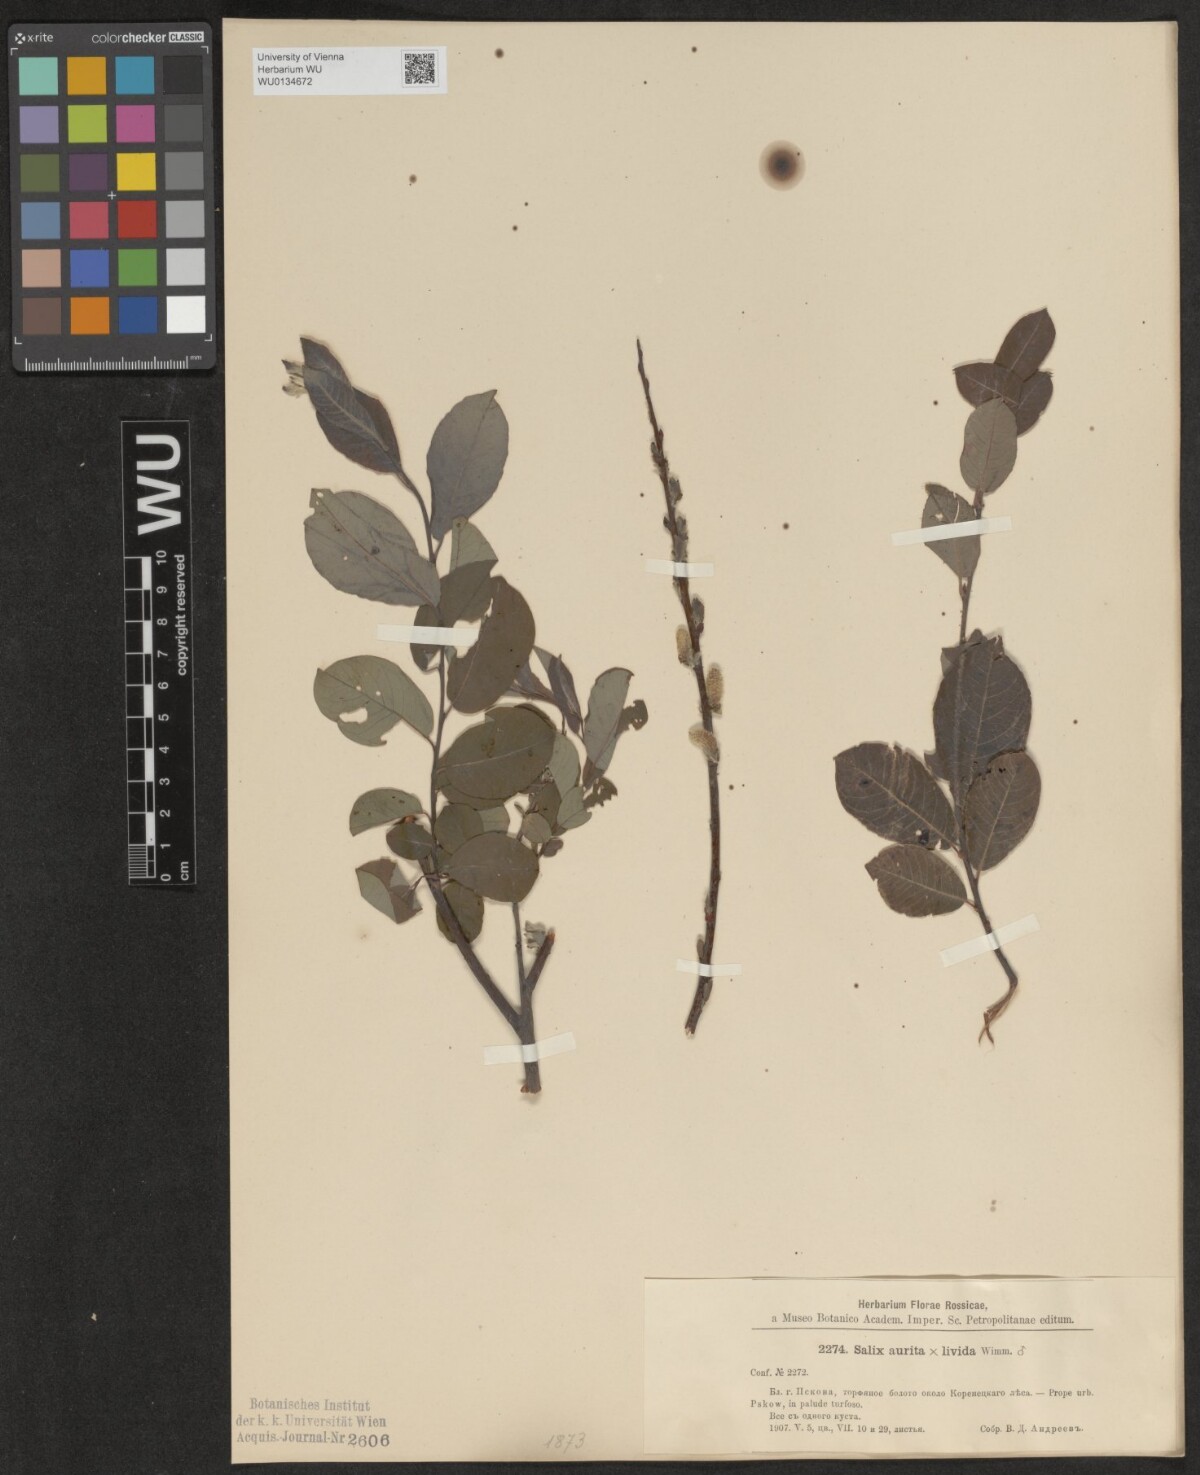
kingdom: Plantae
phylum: Tracheophyta
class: Magnoliopsida
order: Malpighiales
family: Salicaceae
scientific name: Salicaceae
